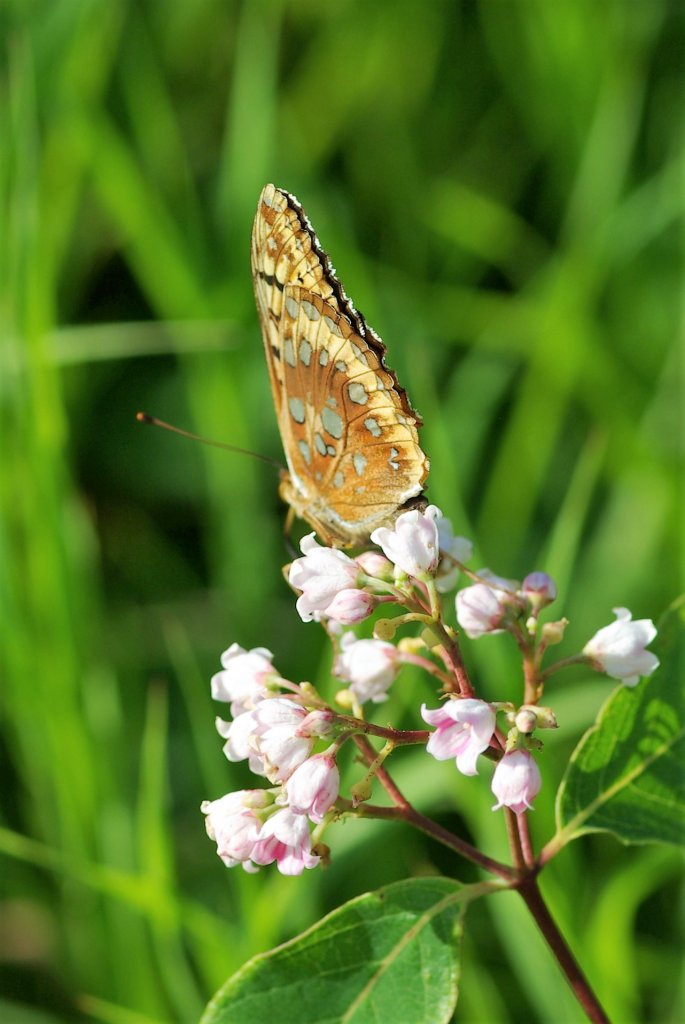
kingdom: Animalia
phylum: Arthropoda
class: Insecta
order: Lepidoptera
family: Nymphalidae
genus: Speyeria
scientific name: Speyeria cybele
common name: Great Spangled Fritillary
